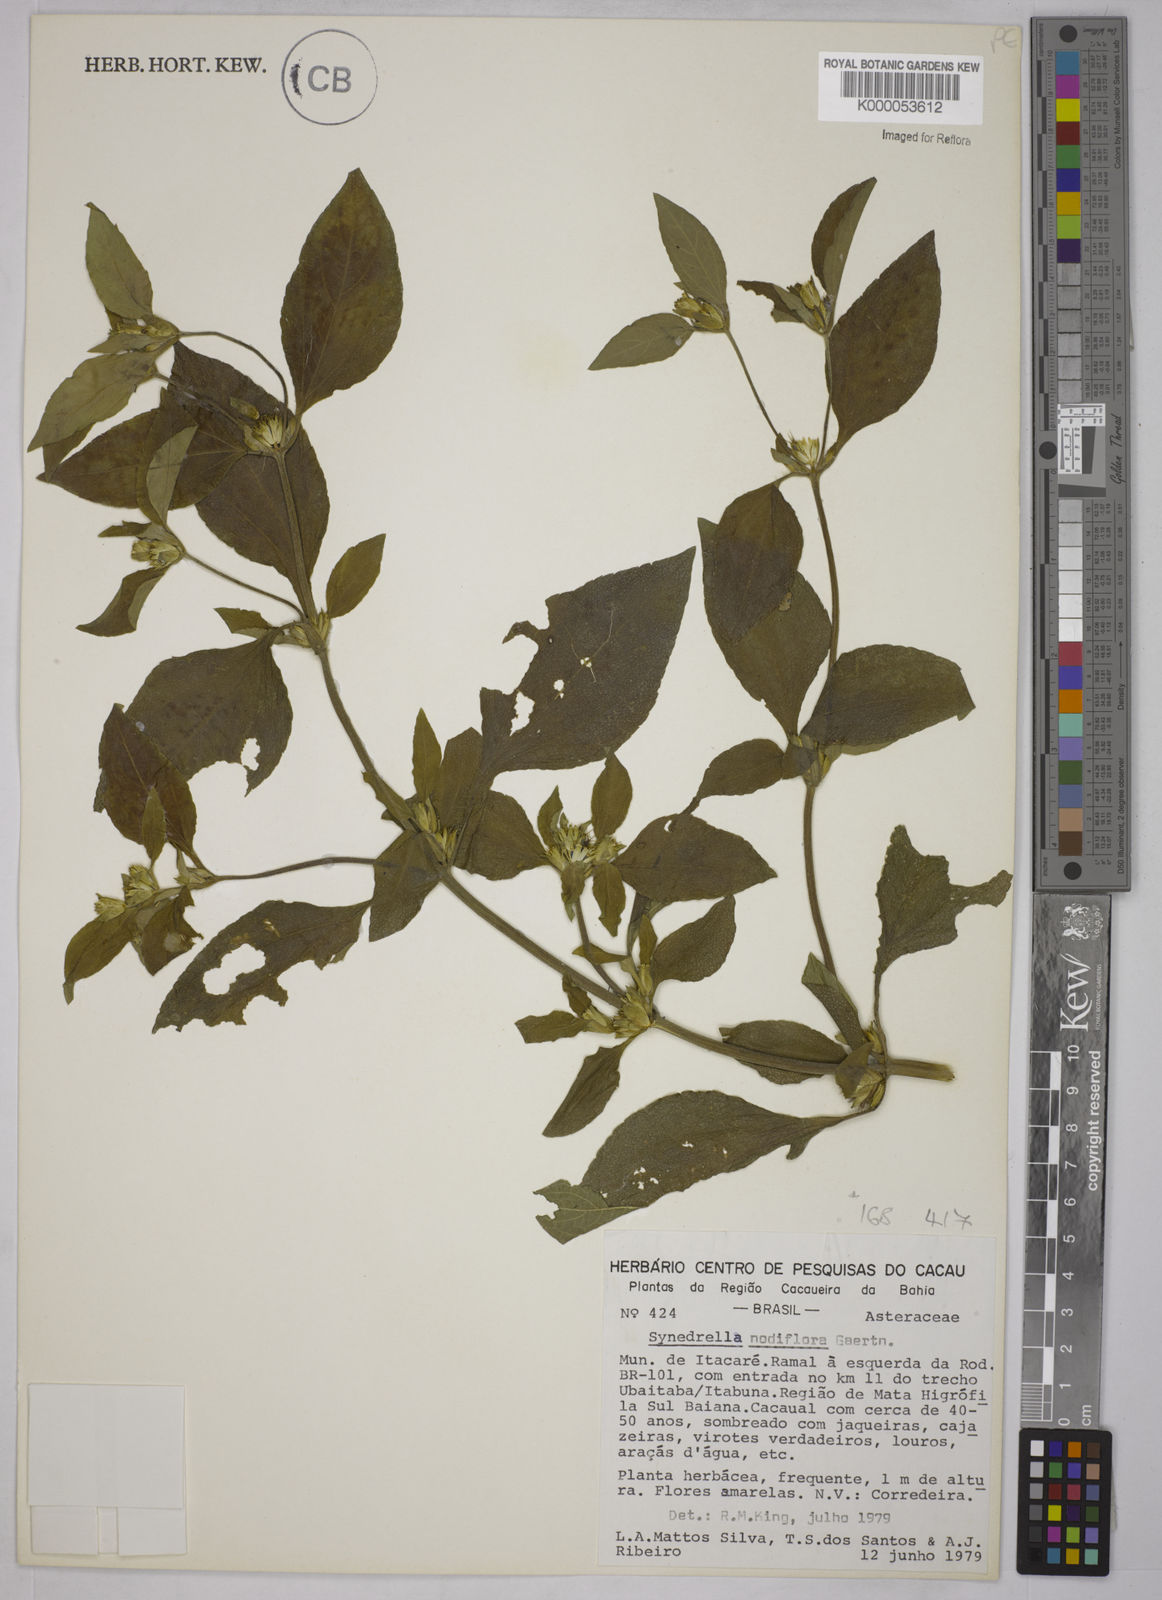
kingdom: Plantae
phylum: Tracheophyta
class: Magnoliopsida
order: Asterales
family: Asteraceae
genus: Synedrella
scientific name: Synedrella nodiflora
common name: Nodeweed
